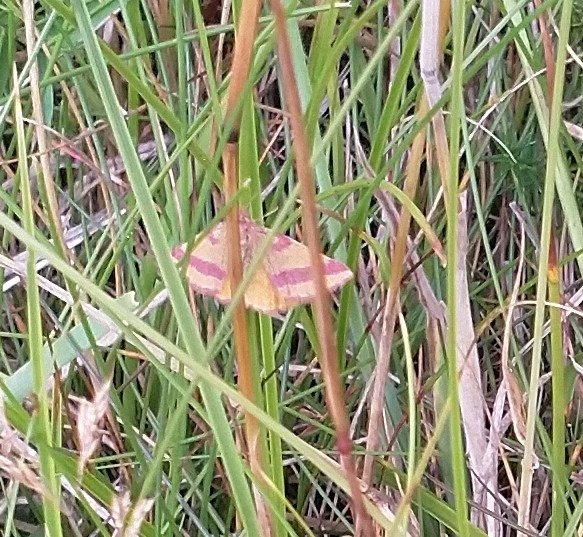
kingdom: Animalia
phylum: Arthropoda
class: Insecta
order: Lepidoptera
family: Geometridae
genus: Lythria
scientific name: Lythria cruentaria
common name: Purpurmåler
